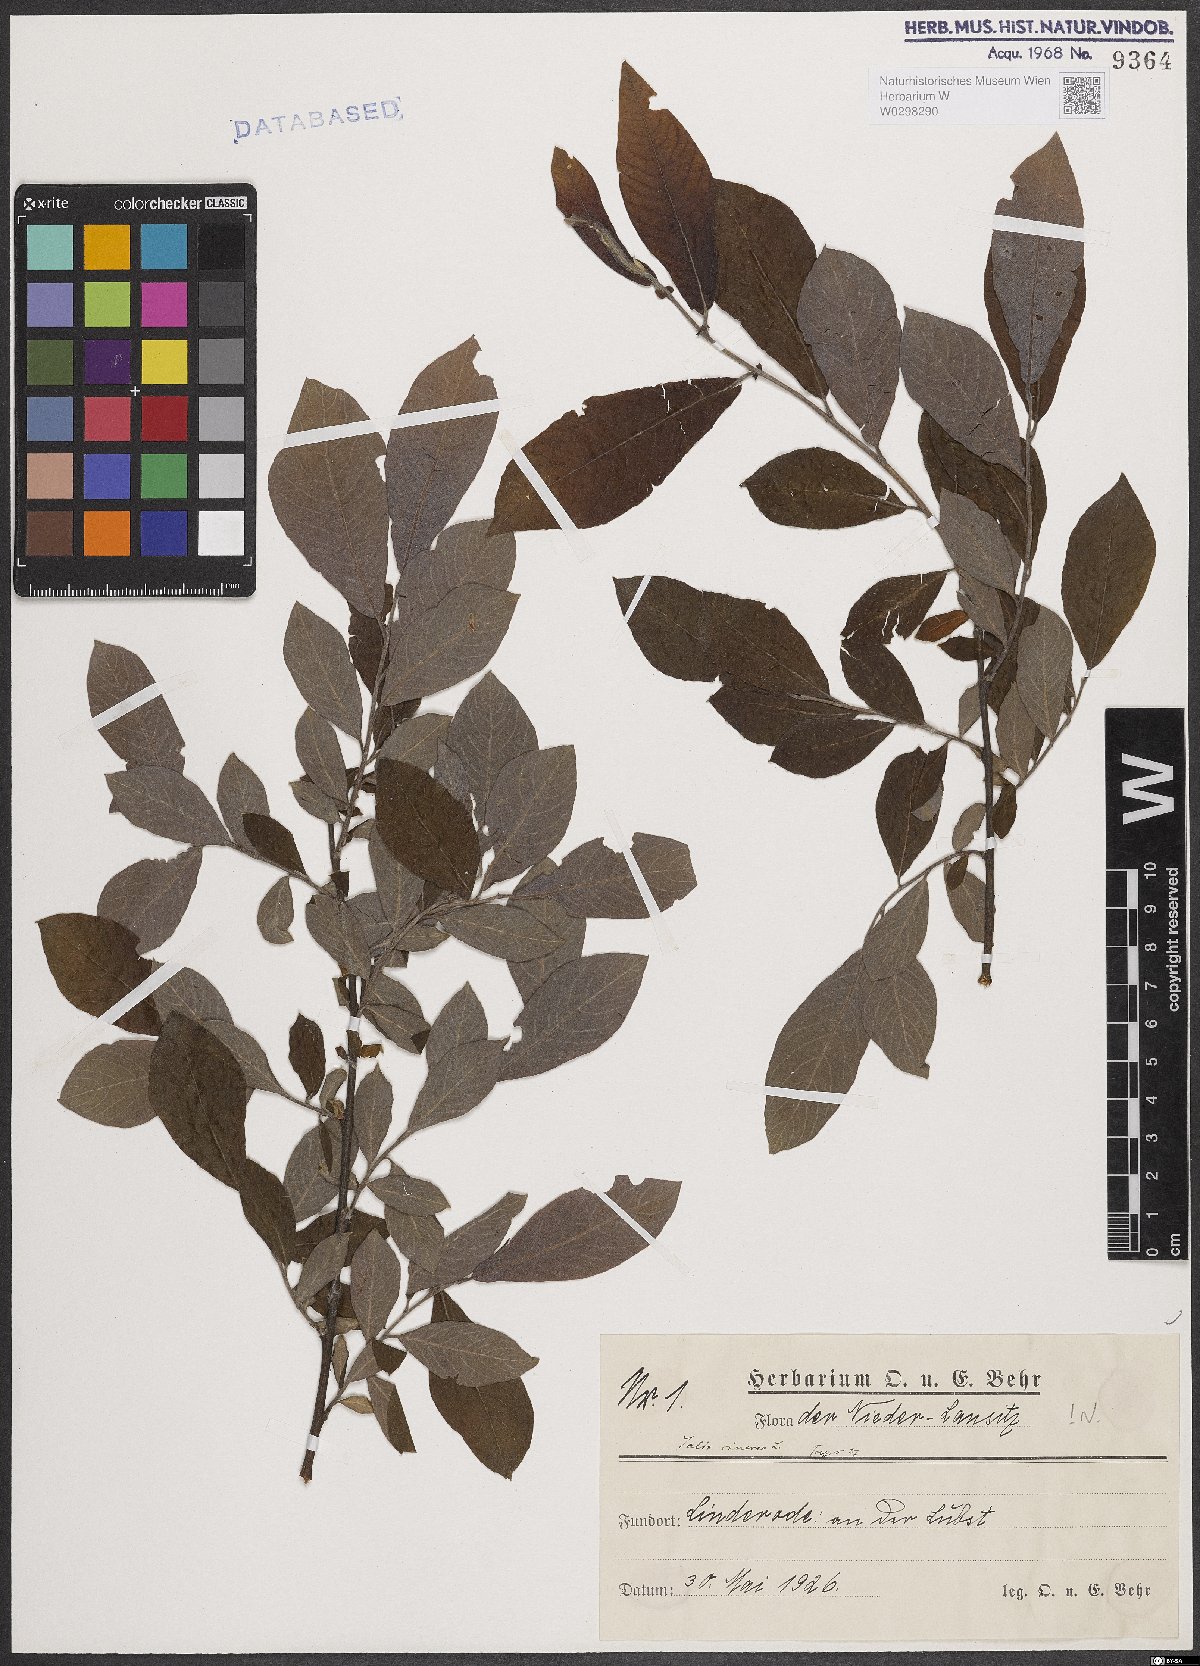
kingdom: Plantae
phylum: Tracheophyta
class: Magnoliopsida
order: Malpighiales
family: Salicaceae
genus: Salix
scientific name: Salix cinerea
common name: Common sallow
